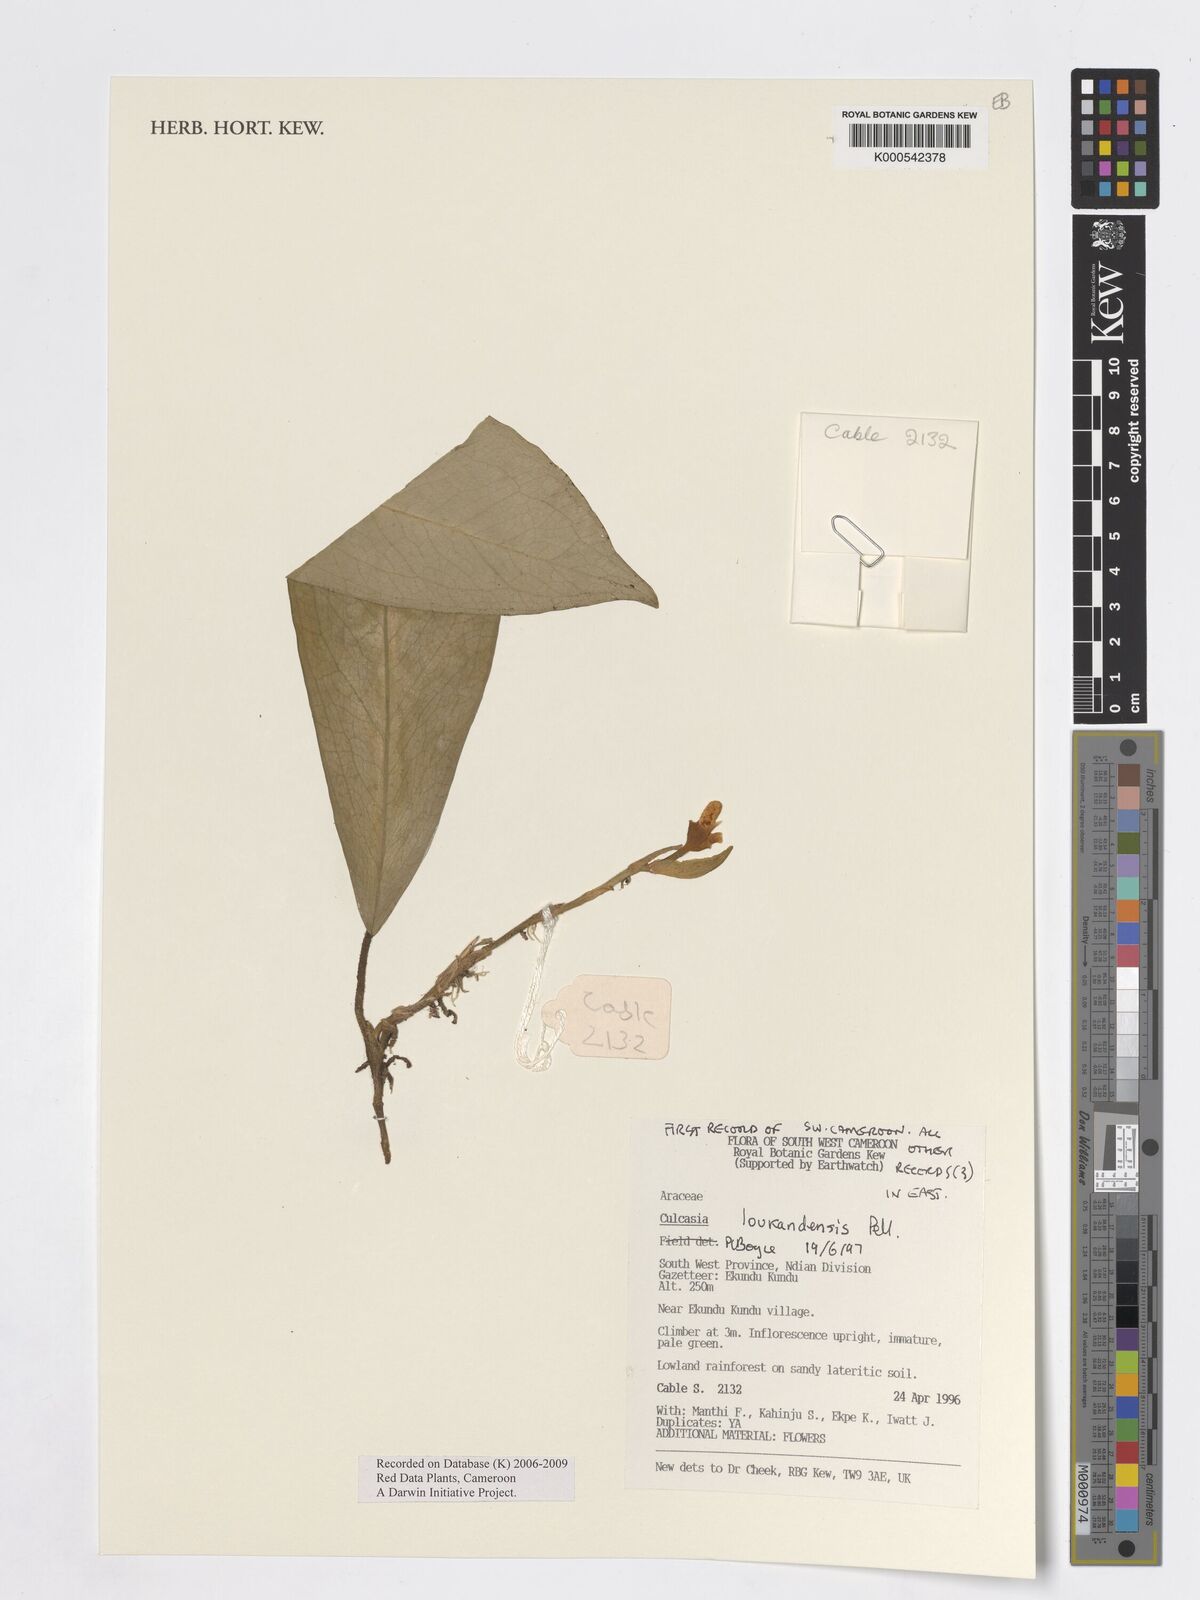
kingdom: Plantae
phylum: Tracheophyta
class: Liliopsida
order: Alismatales
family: Araceae
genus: Culcasia
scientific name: Culcasia loukandensis
